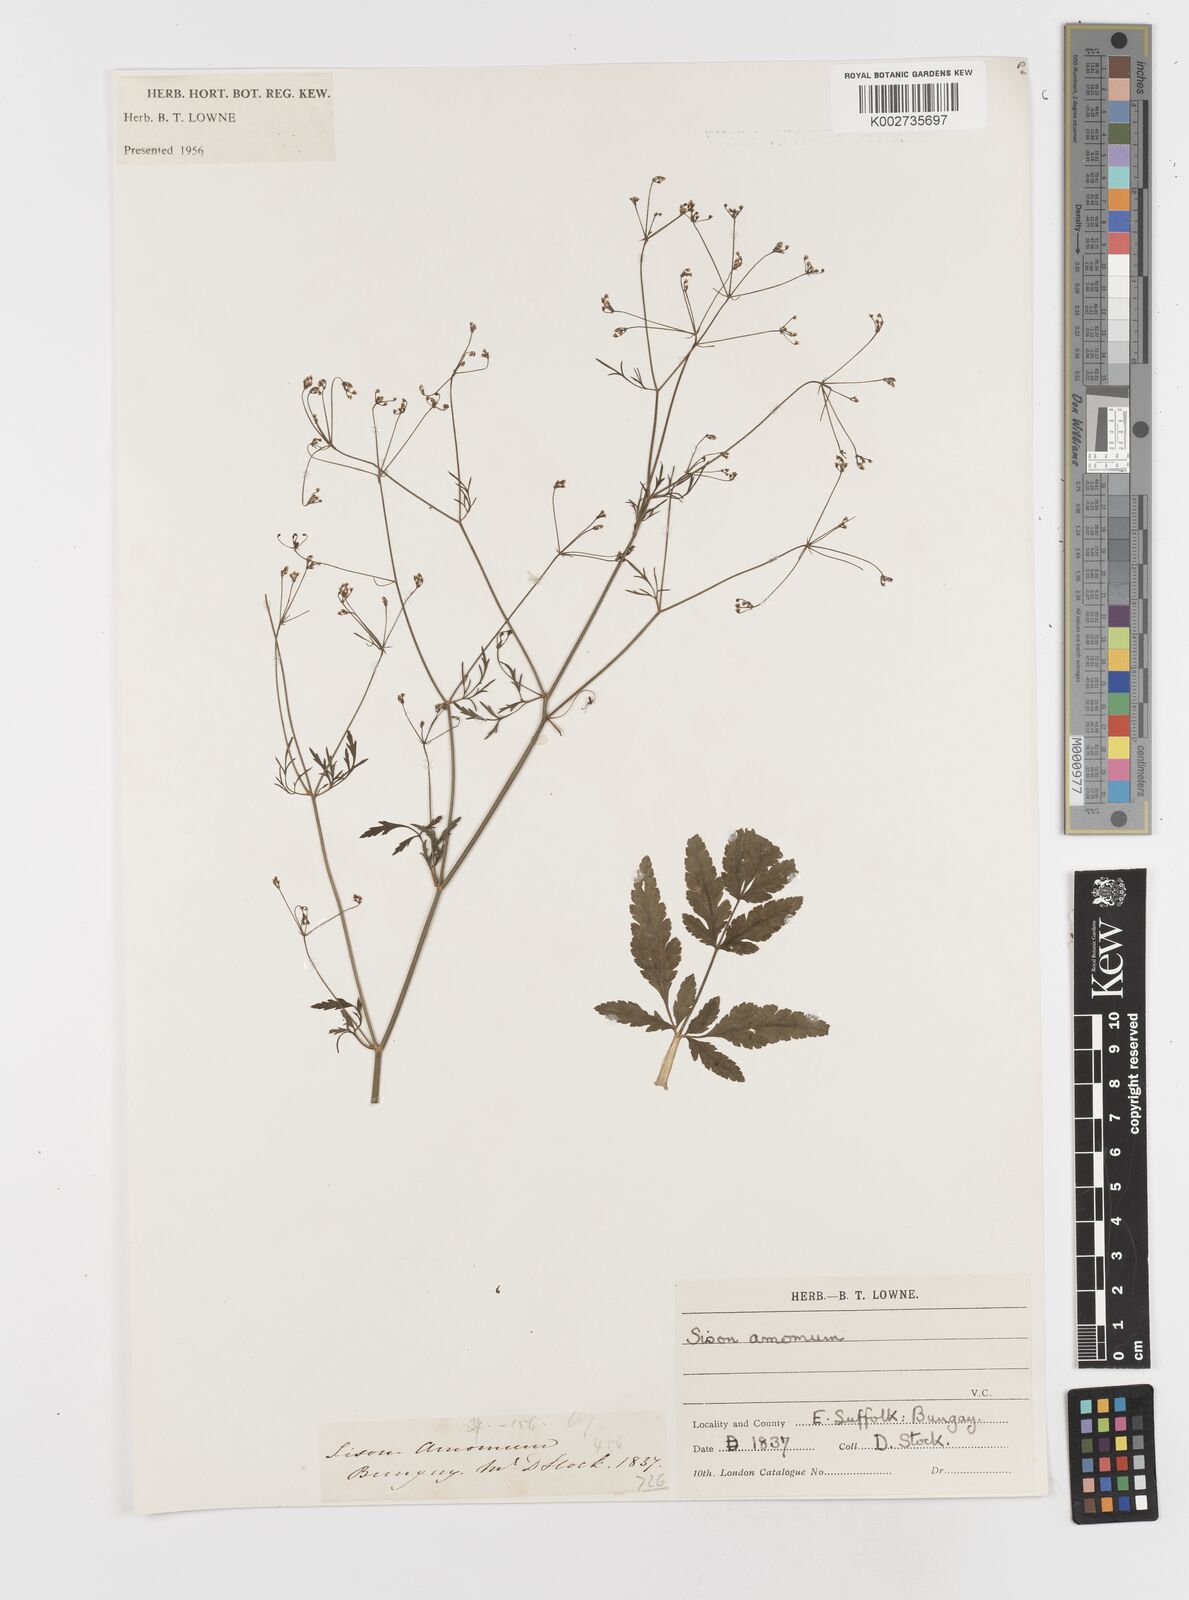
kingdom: Plantae
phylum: Tracheophyta
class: Magnoliopsida
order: Apiales
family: Apiaceae
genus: Sison
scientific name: Sison amomum
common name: Stone-parsley
